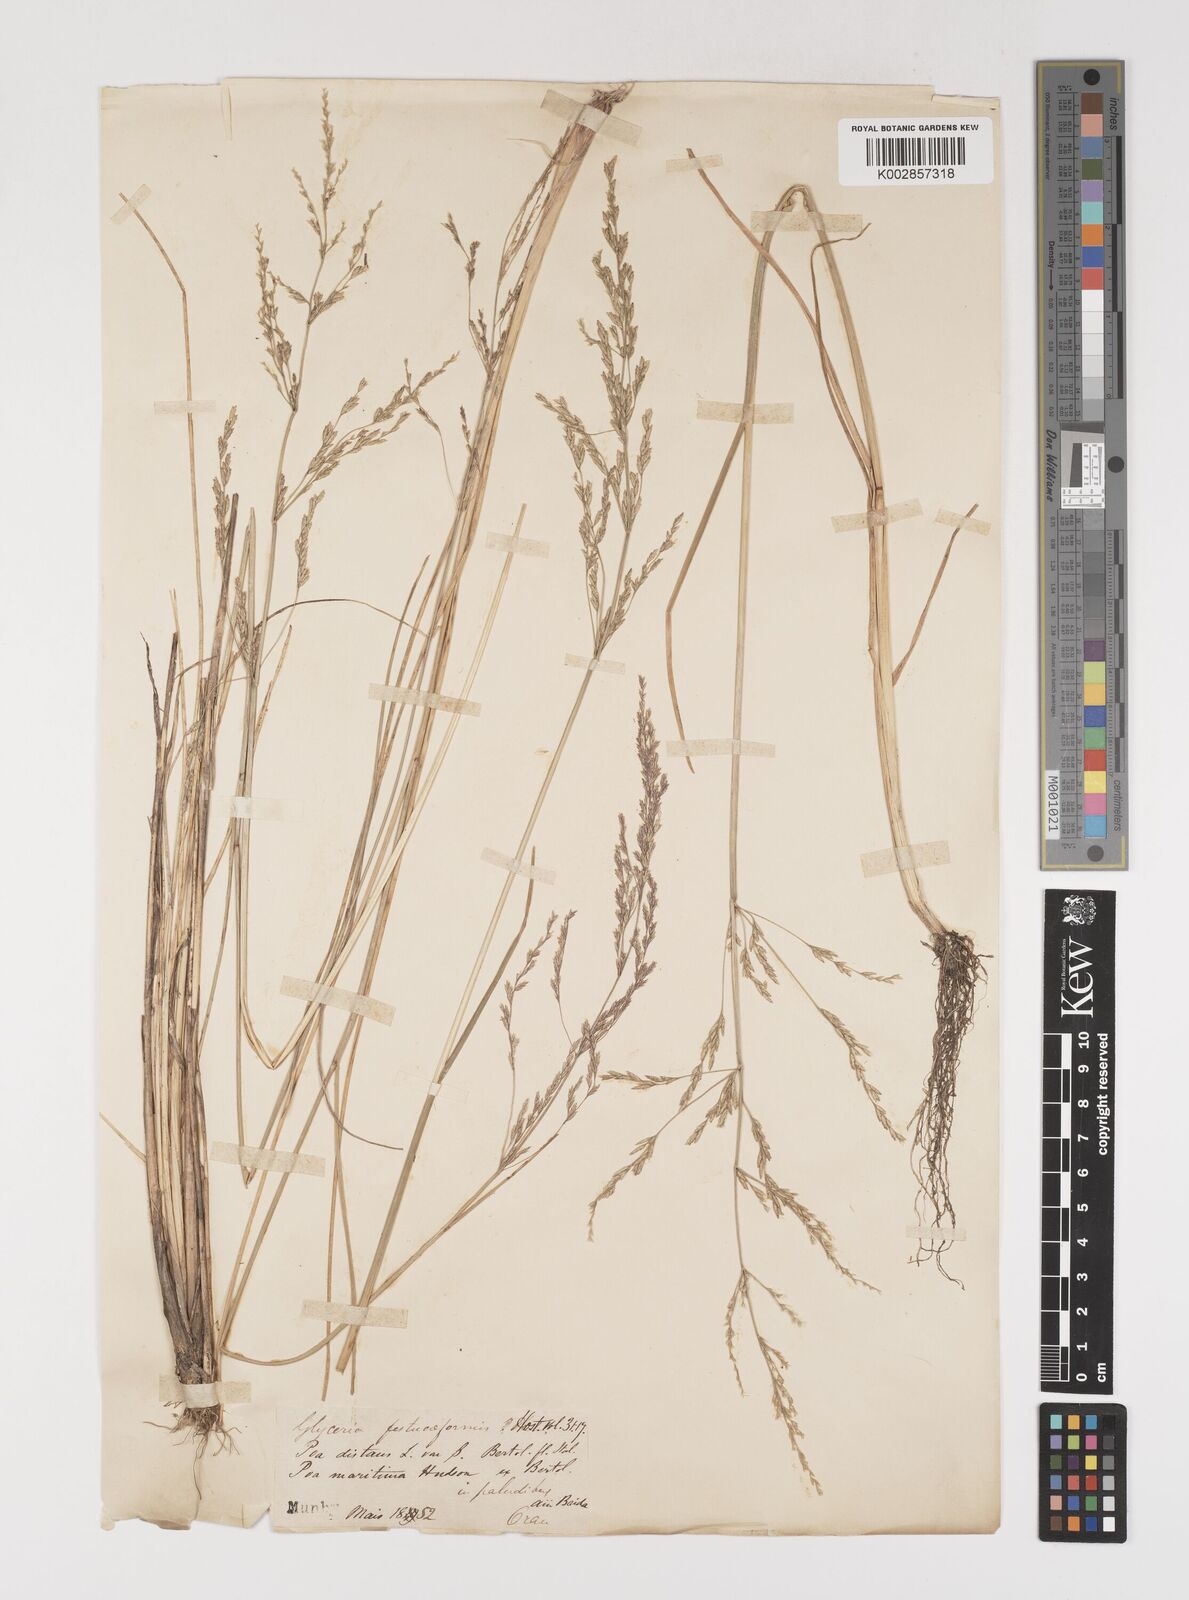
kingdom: Plantae
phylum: Tracheophyta
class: Liliopsida
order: Poales
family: Poaceae
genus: Puccinellia
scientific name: Puccinellia distans
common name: Weeping alkaligrass
